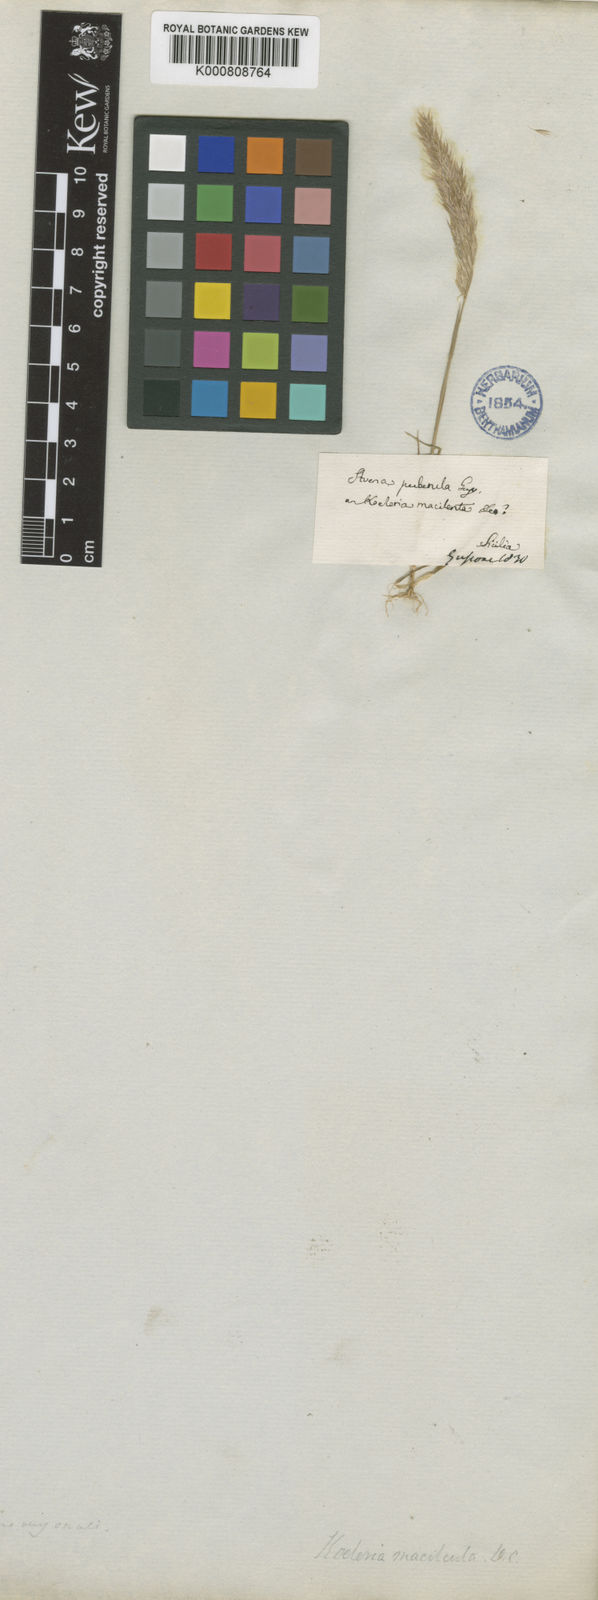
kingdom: Plantae
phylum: Tracheophyta
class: Liliopsida
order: Poales
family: Poaceae
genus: Avellinia
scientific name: Avellinia festucoides
